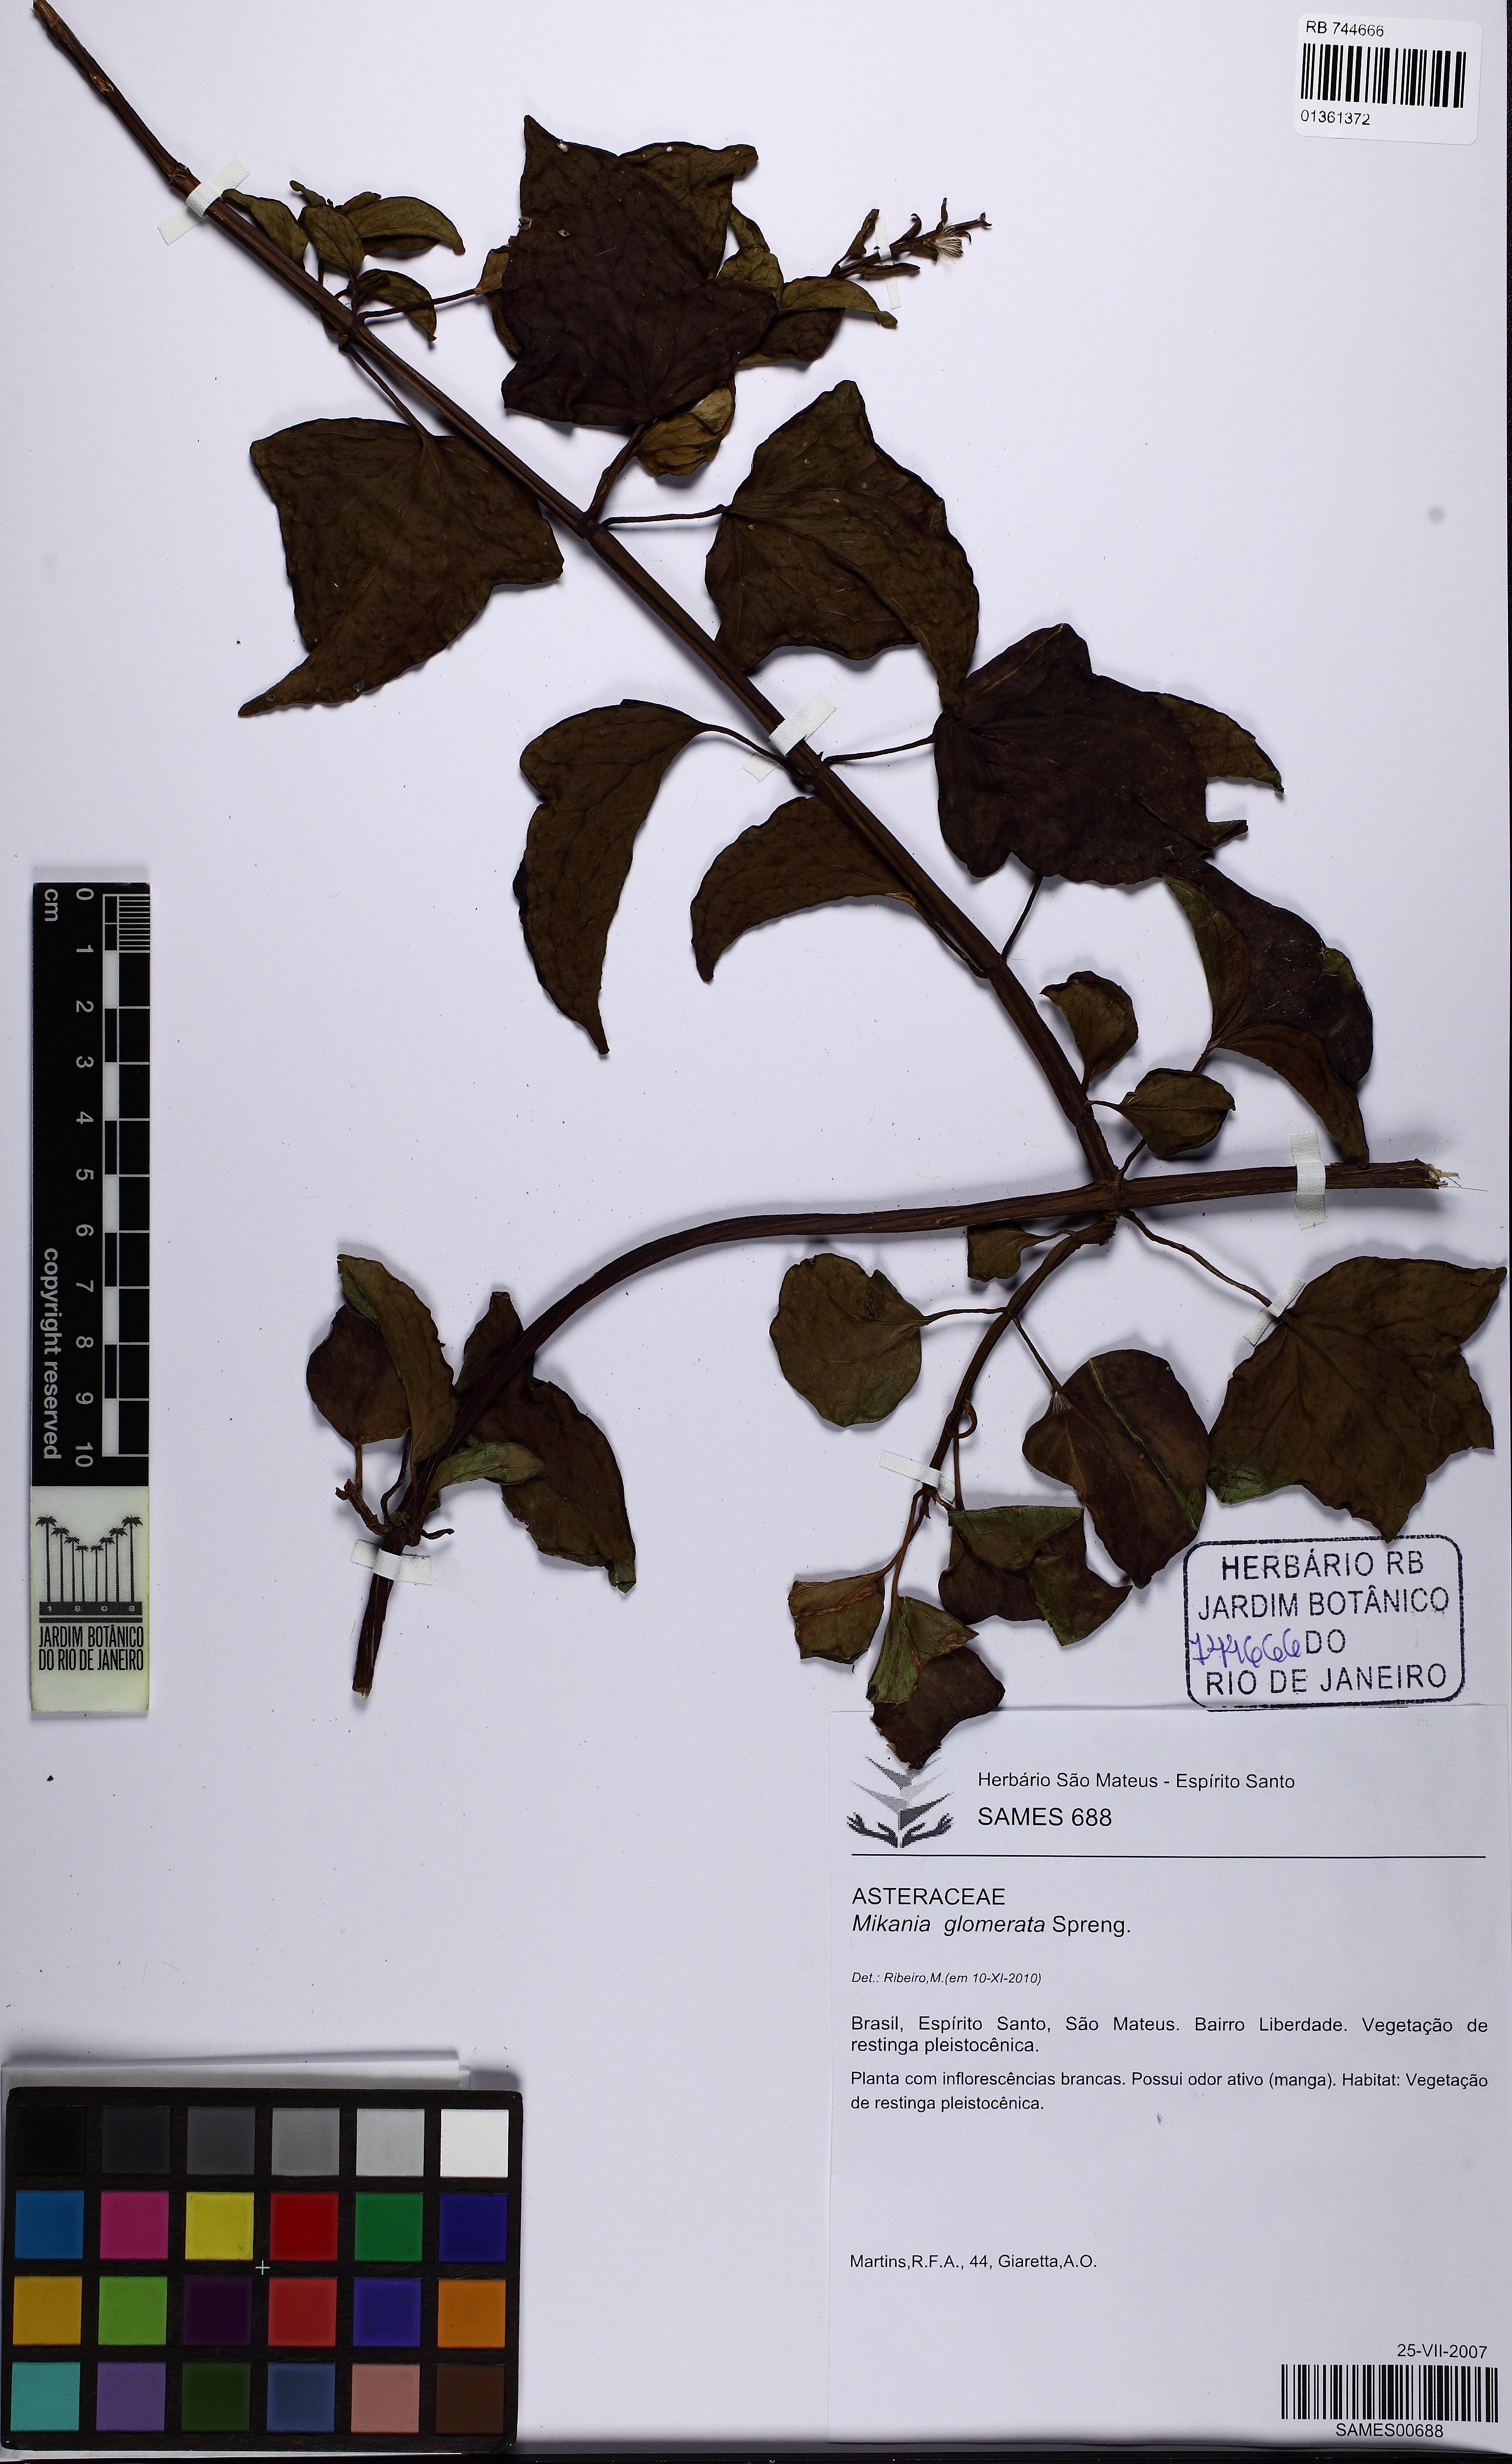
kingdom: Plantae
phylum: Tracheophyta
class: Magnoliopsida
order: Asterales
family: Asteraceae
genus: Mikania
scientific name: Mikania glomerata
